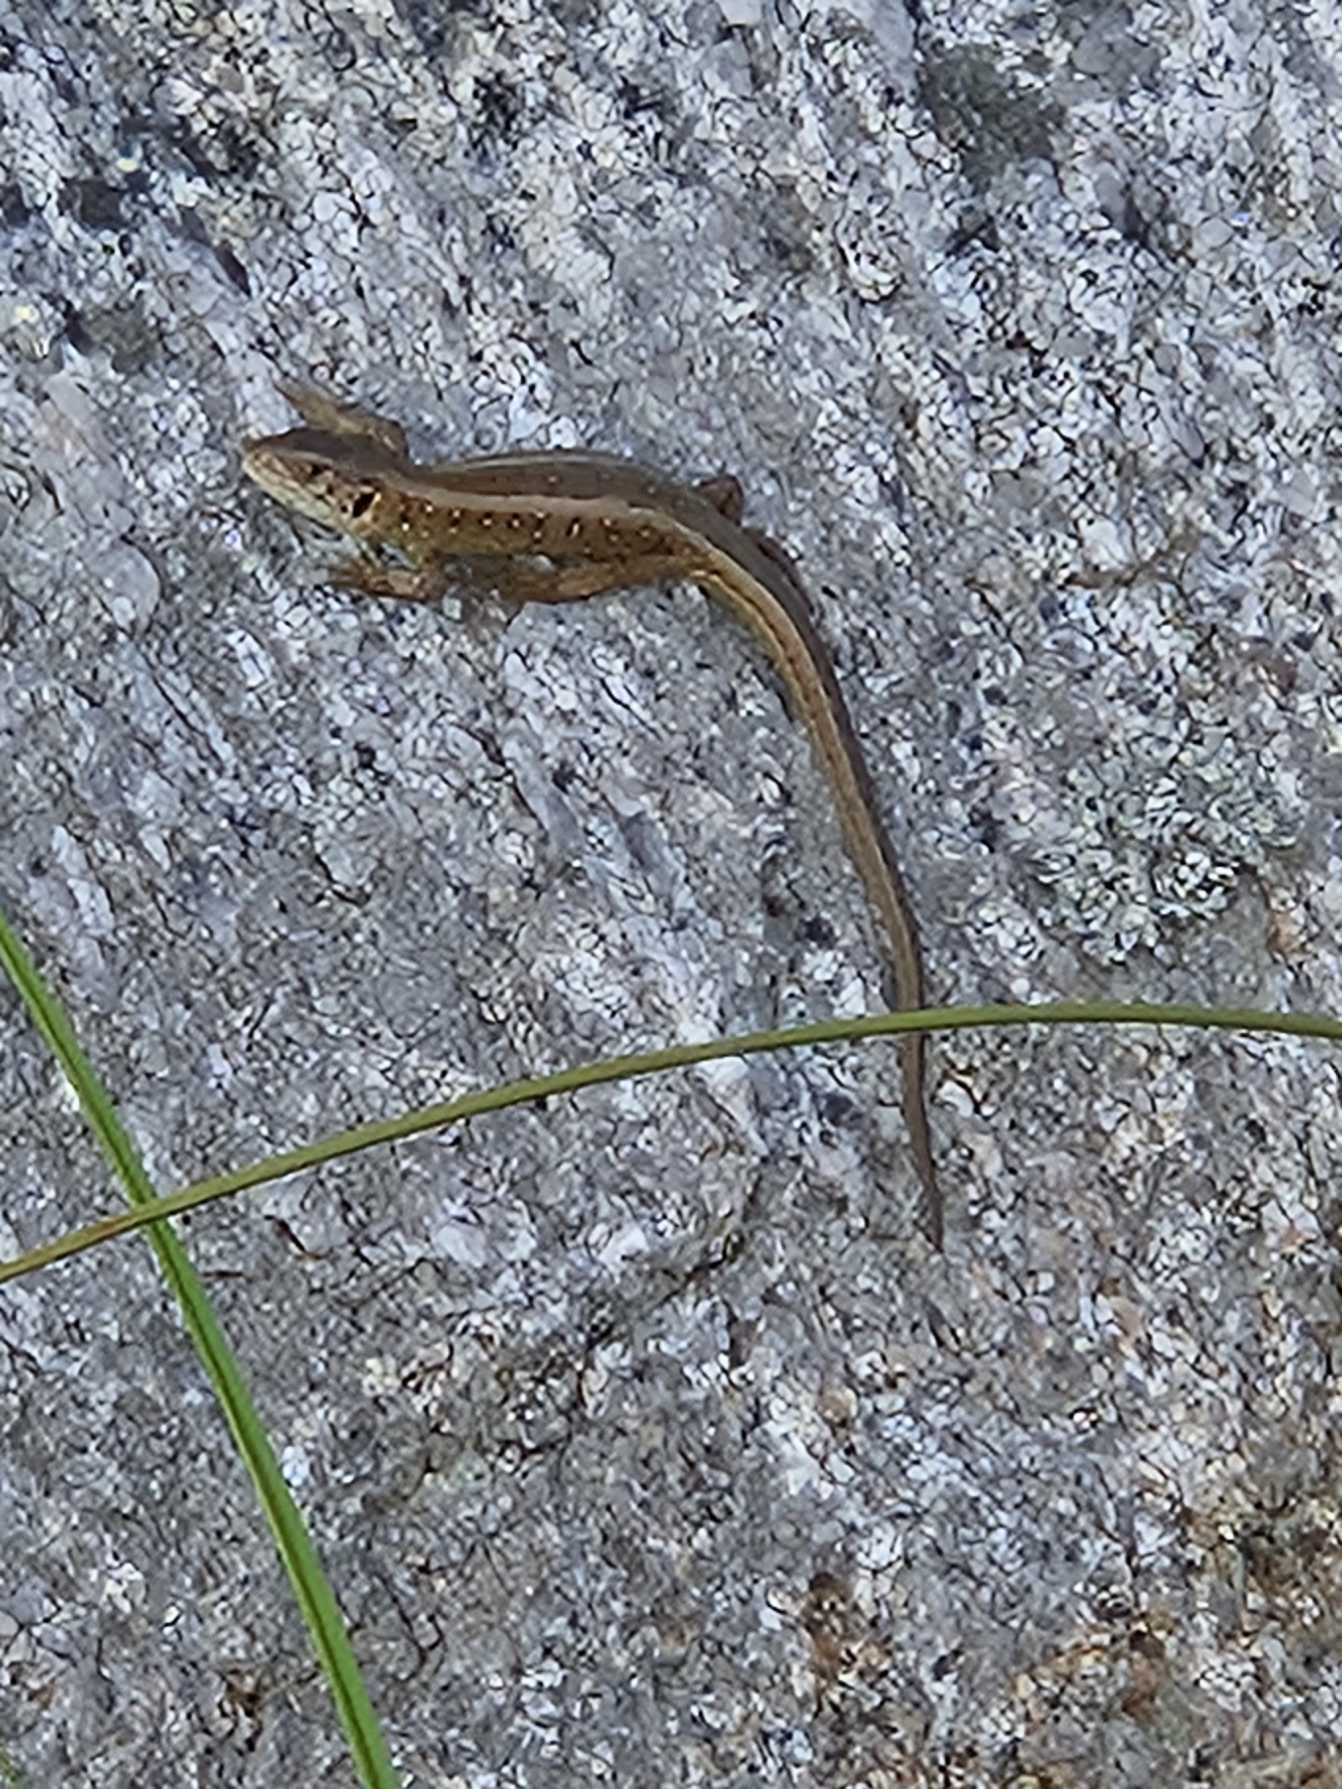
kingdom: Animalia
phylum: Chordata
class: Squamata
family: Lacertidae
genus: Lacerta
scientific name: Lacerta agilis
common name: Markfirben
